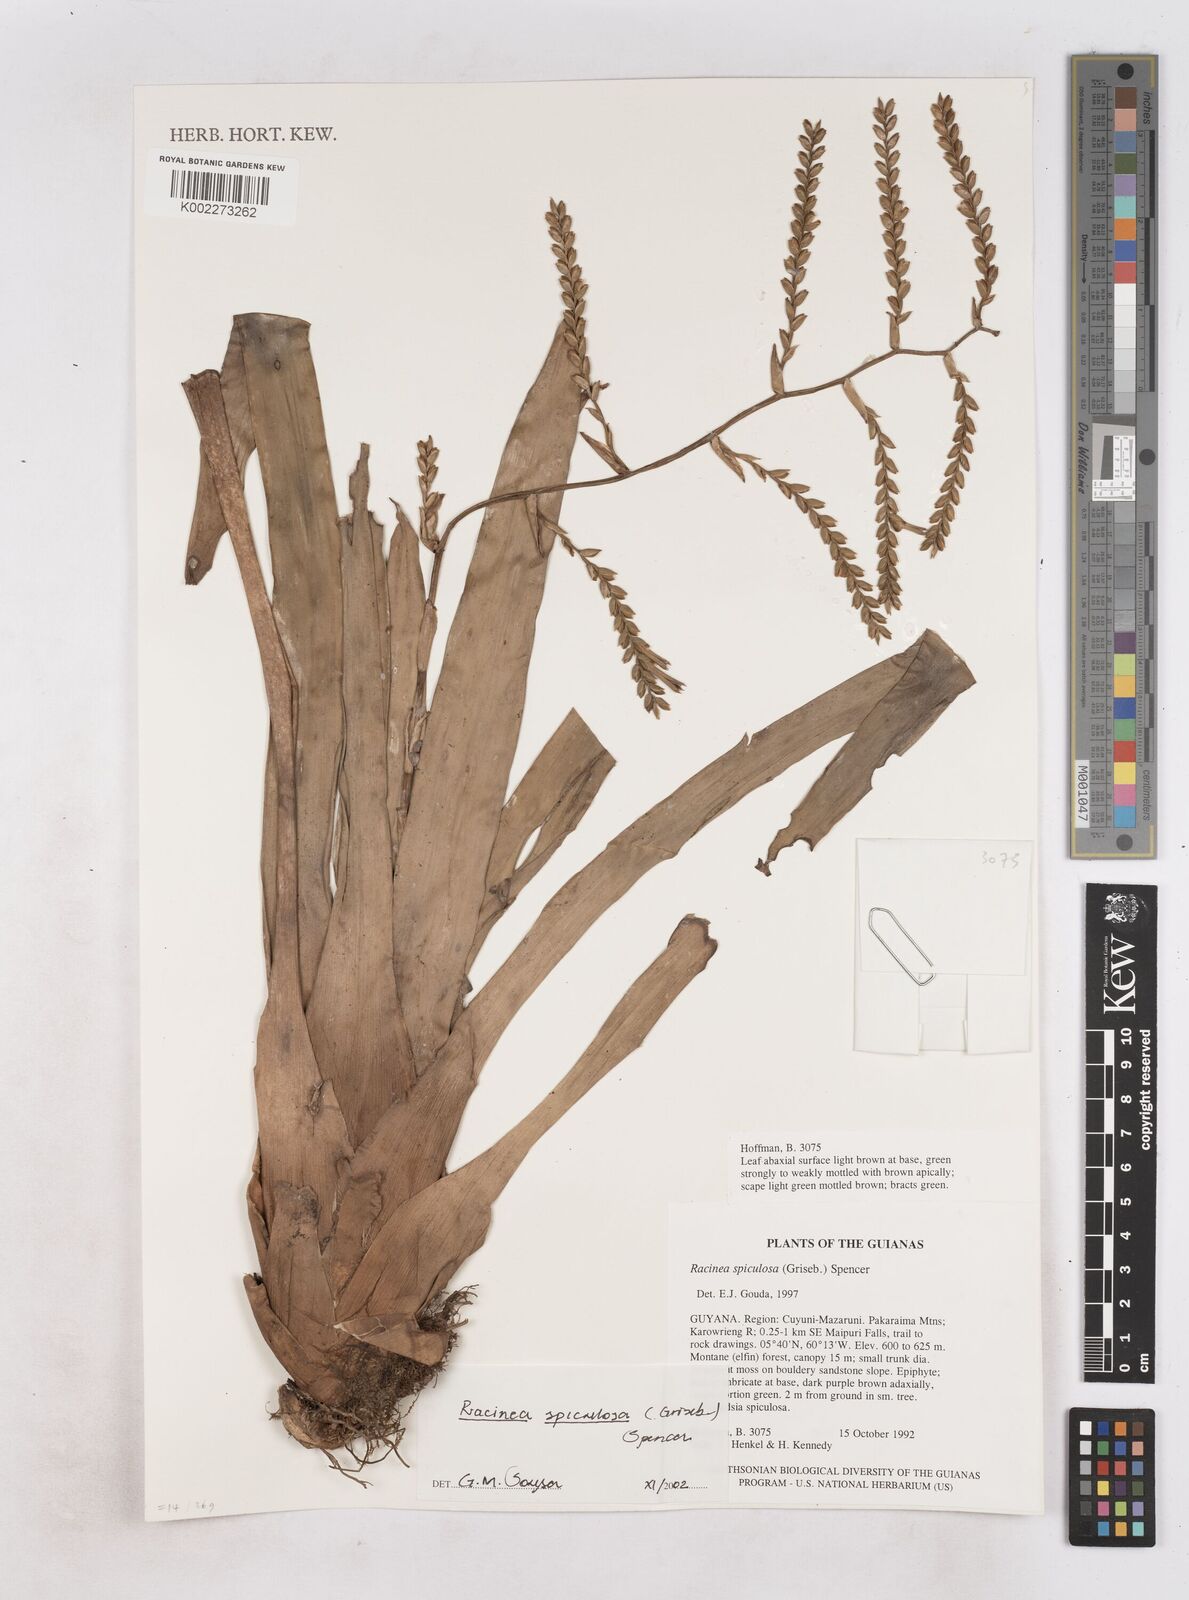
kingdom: Plantae
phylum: Tracheophyta
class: Liliopsida
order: Poales
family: Bromeliaceae
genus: Racinaea
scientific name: Racinaea spiculosa
